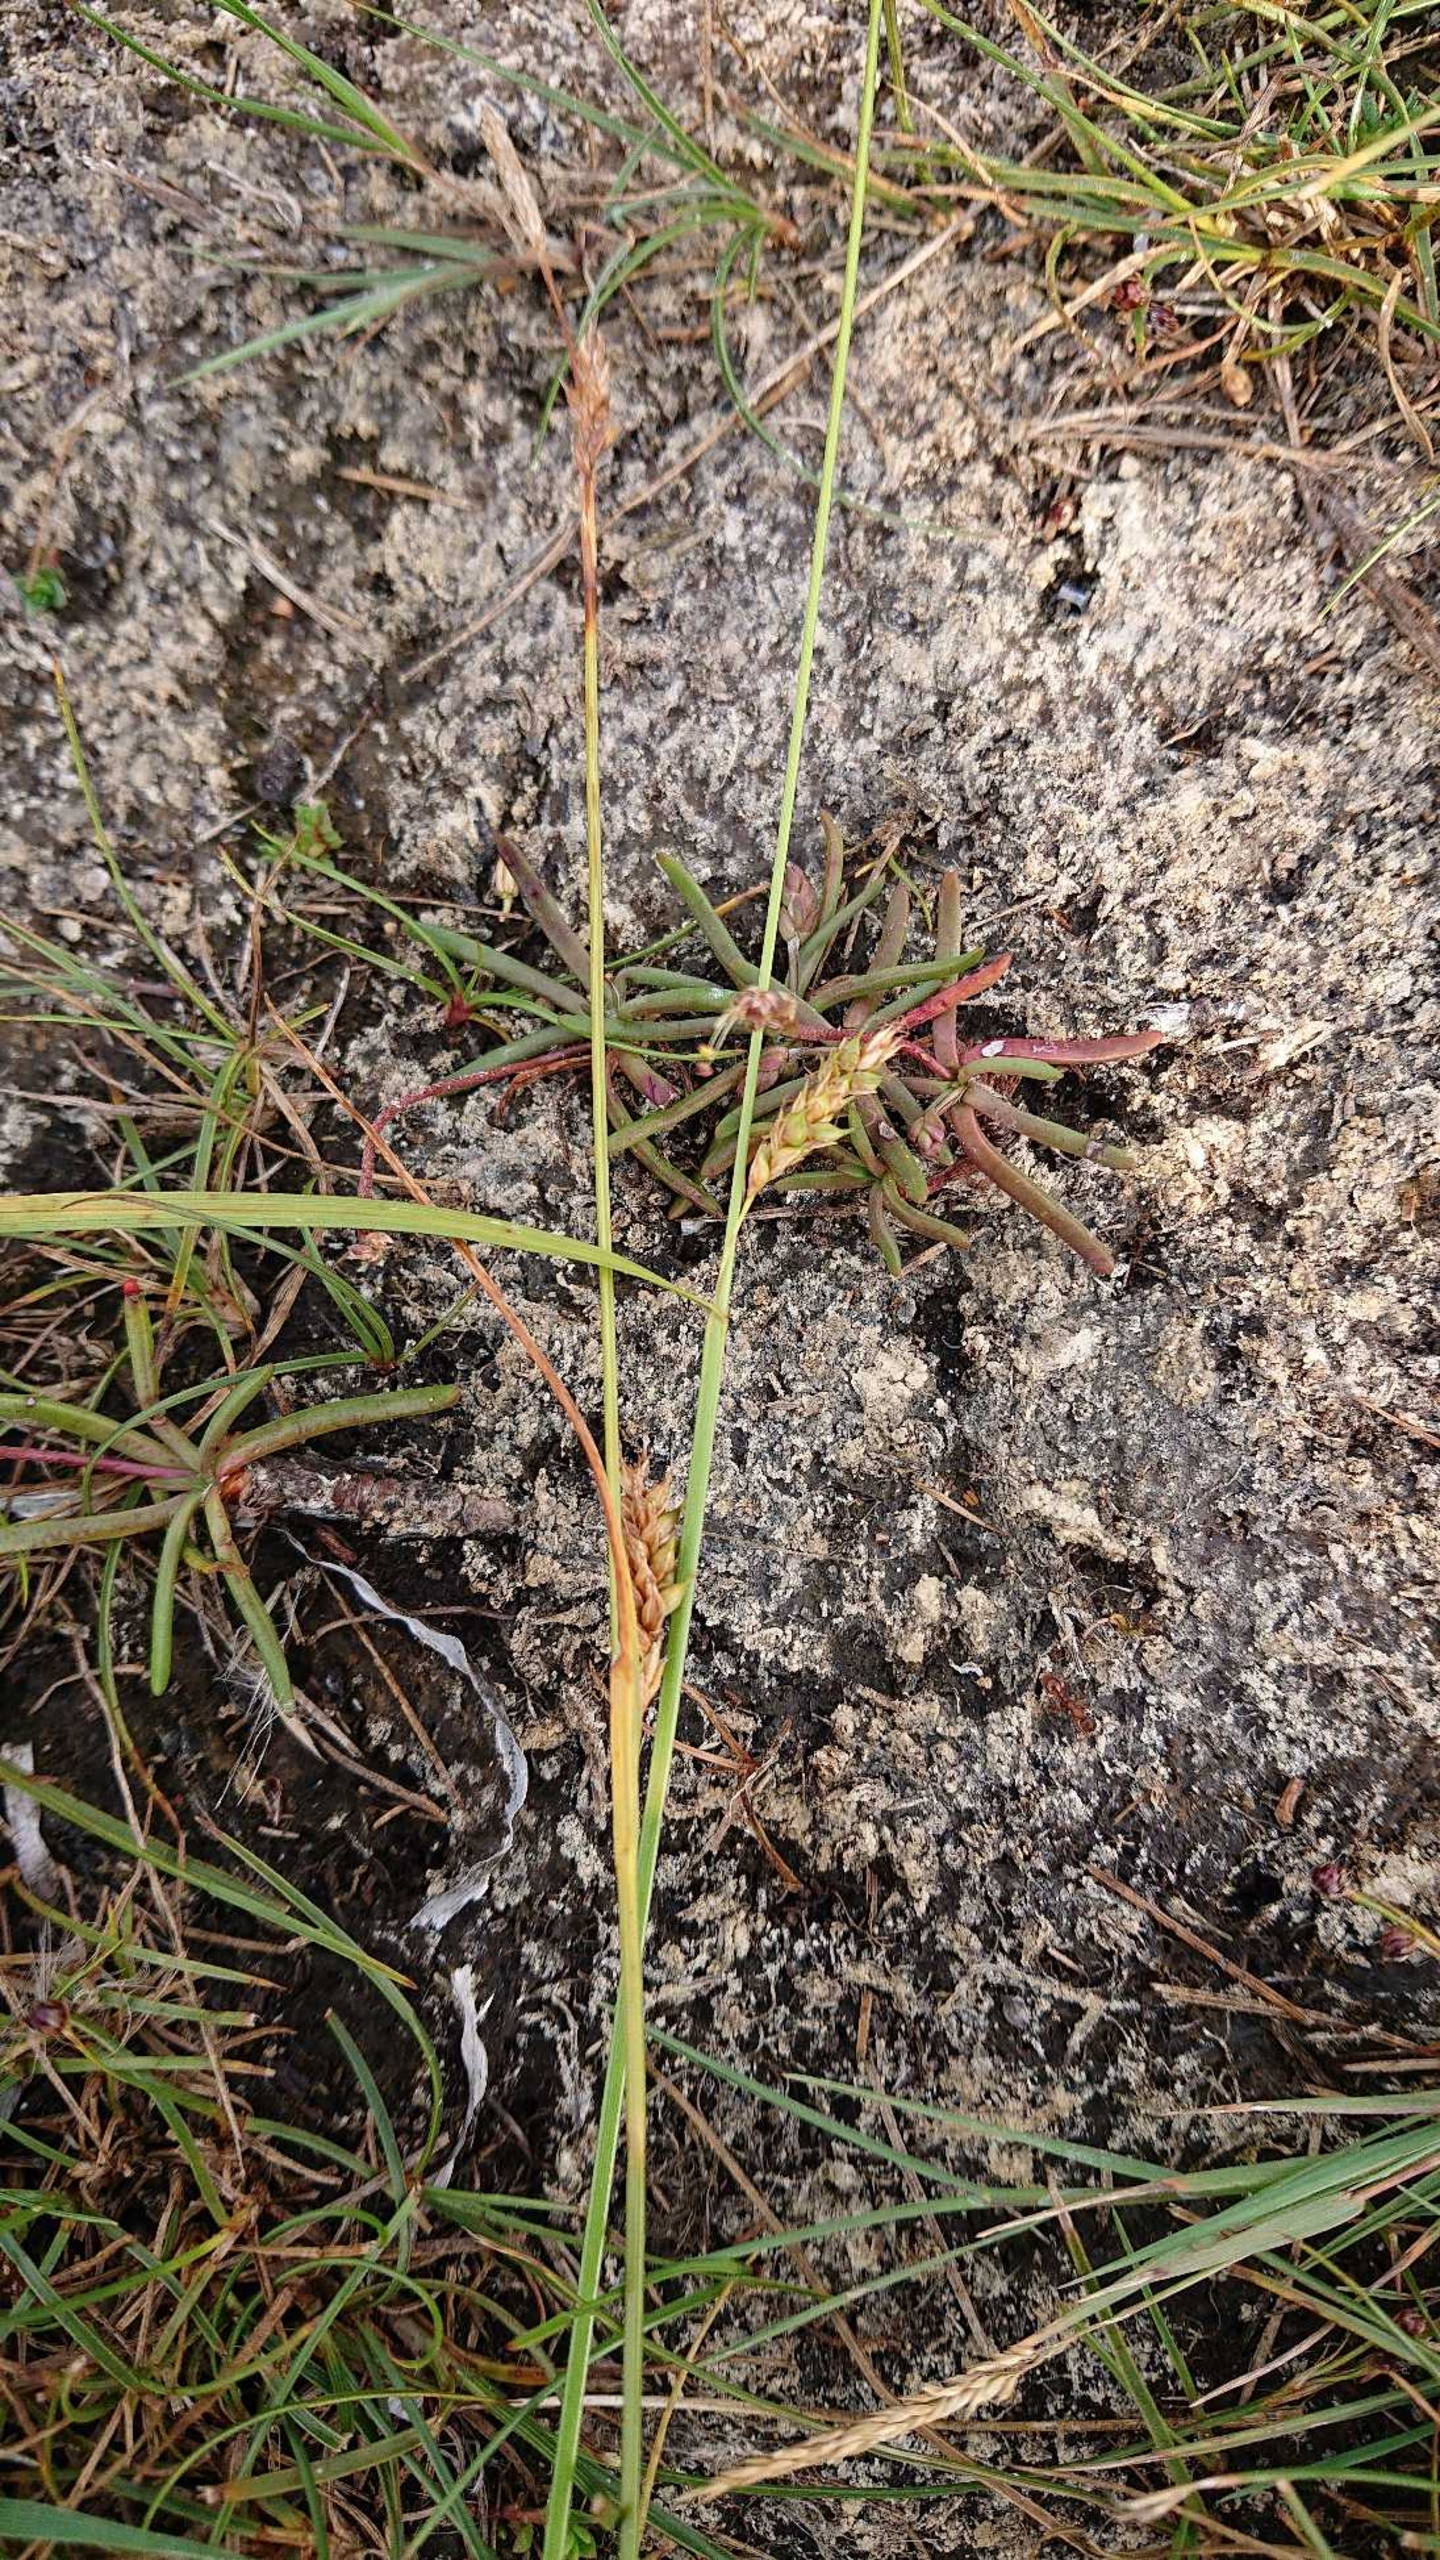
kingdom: Plantae
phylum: Tracheophyta
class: Liliopsida
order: Poales
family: Cyperaceae
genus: Carex
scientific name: Carex distans
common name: Fjernakset star
